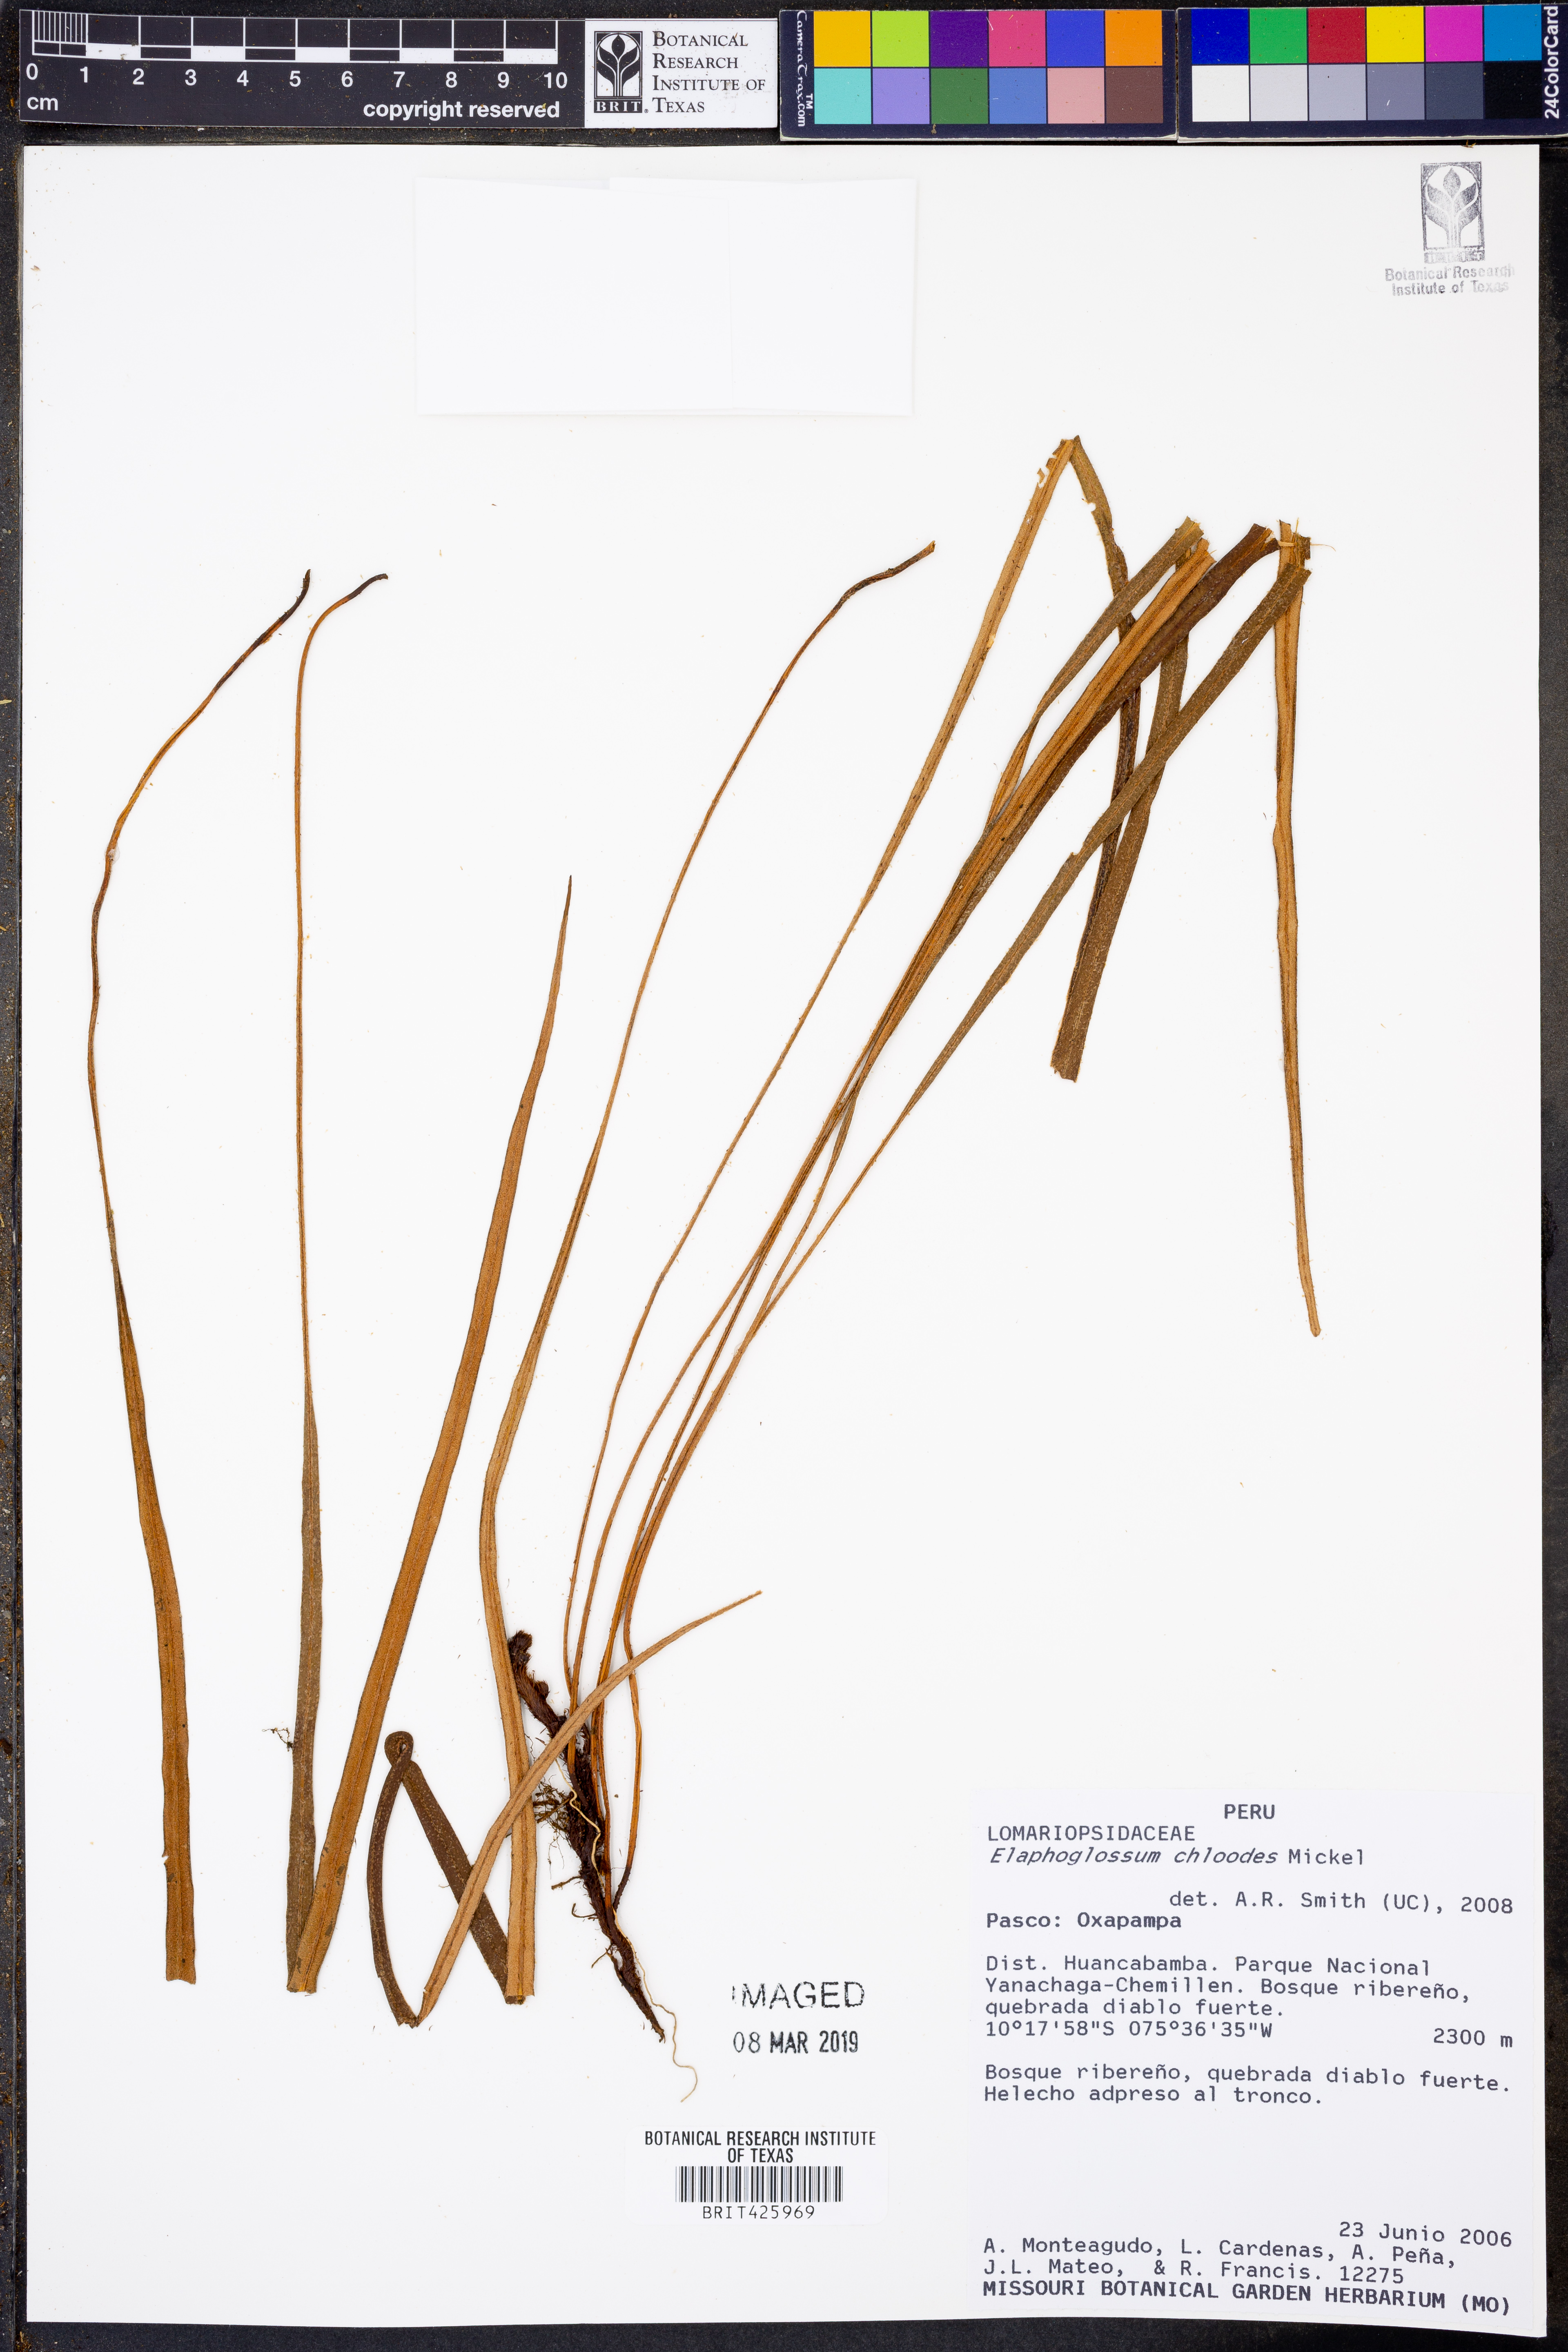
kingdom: Plantae
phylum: Tracheophyta
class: Polypodiopsida
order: Polypodiales
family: Dryopteridaceae
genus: Elaphoglossum
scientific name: Elaphoglossum chloodes
